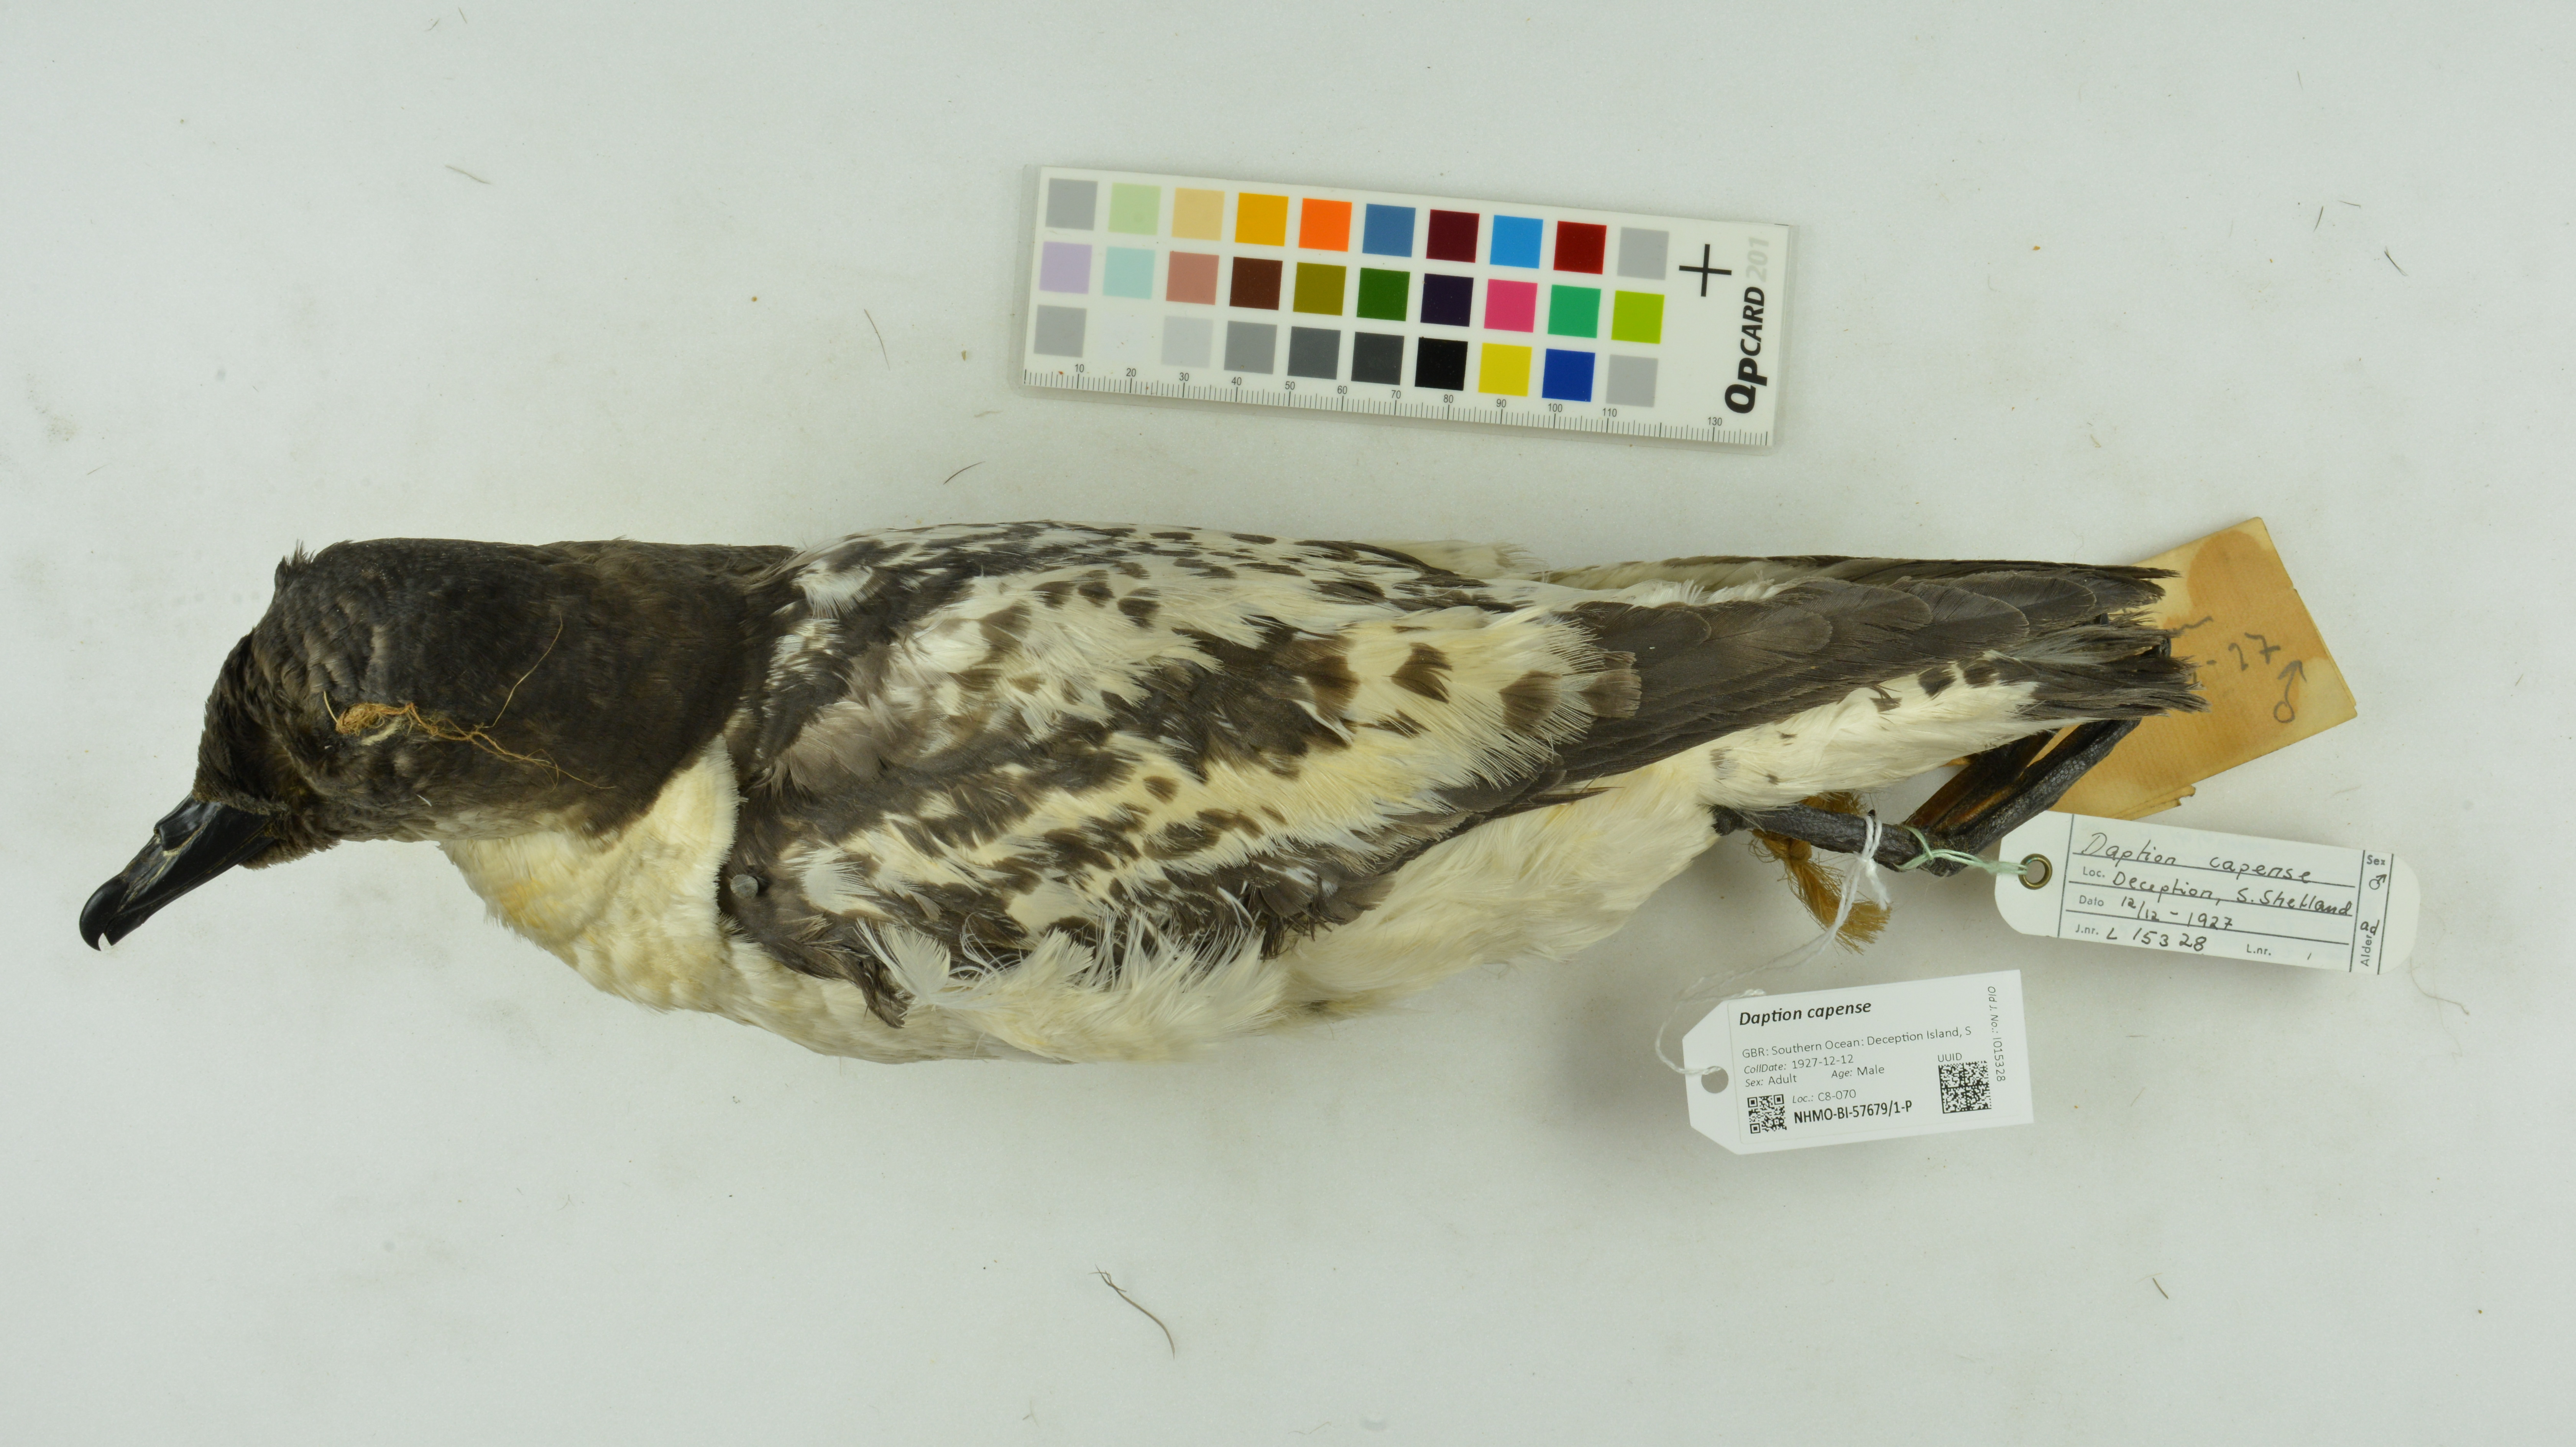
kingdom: Animalia
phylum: Chordata
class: Aves
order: Procellariiformes
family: Procellariidae
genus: Daption
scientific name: Daption capense
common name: Cape petrel
